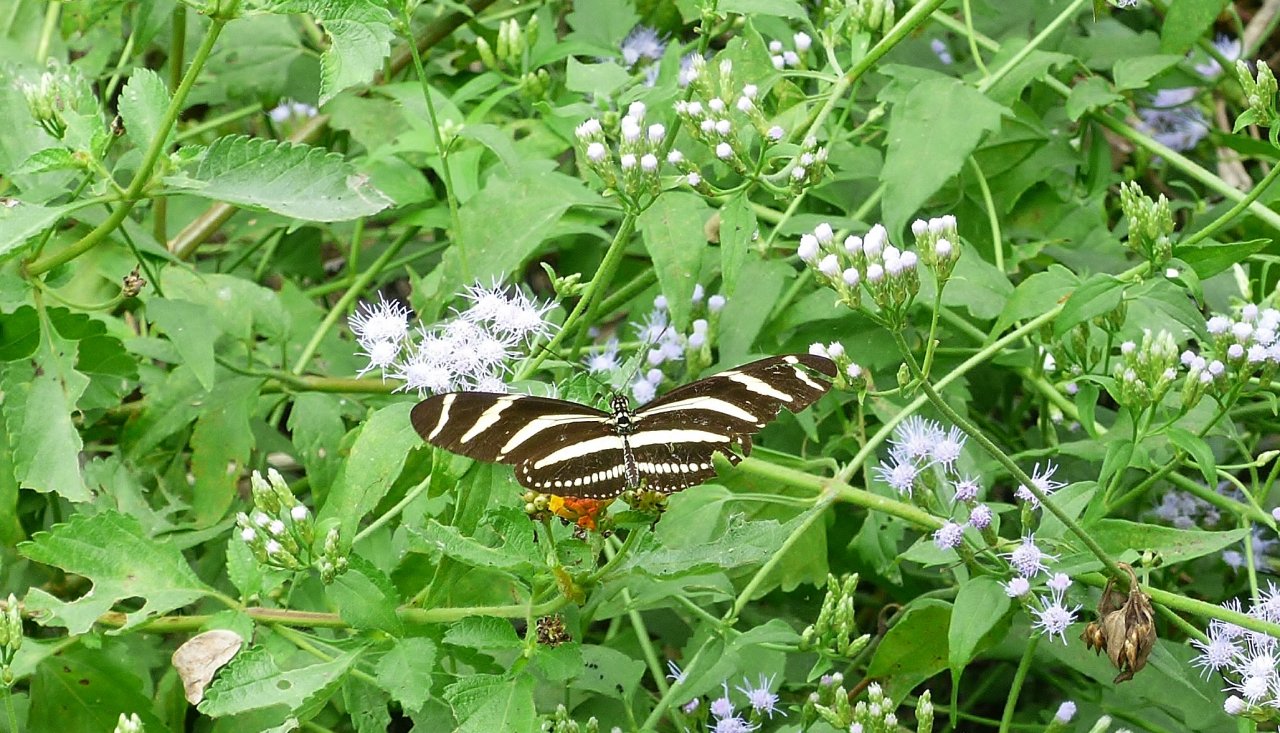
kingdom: Animalia
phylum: Arthropoda
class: Insecta
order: Lepidoptera
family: Nymphalidae
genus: Heliconius
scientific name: Heliconius charithonia
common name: Zebra Longwing
